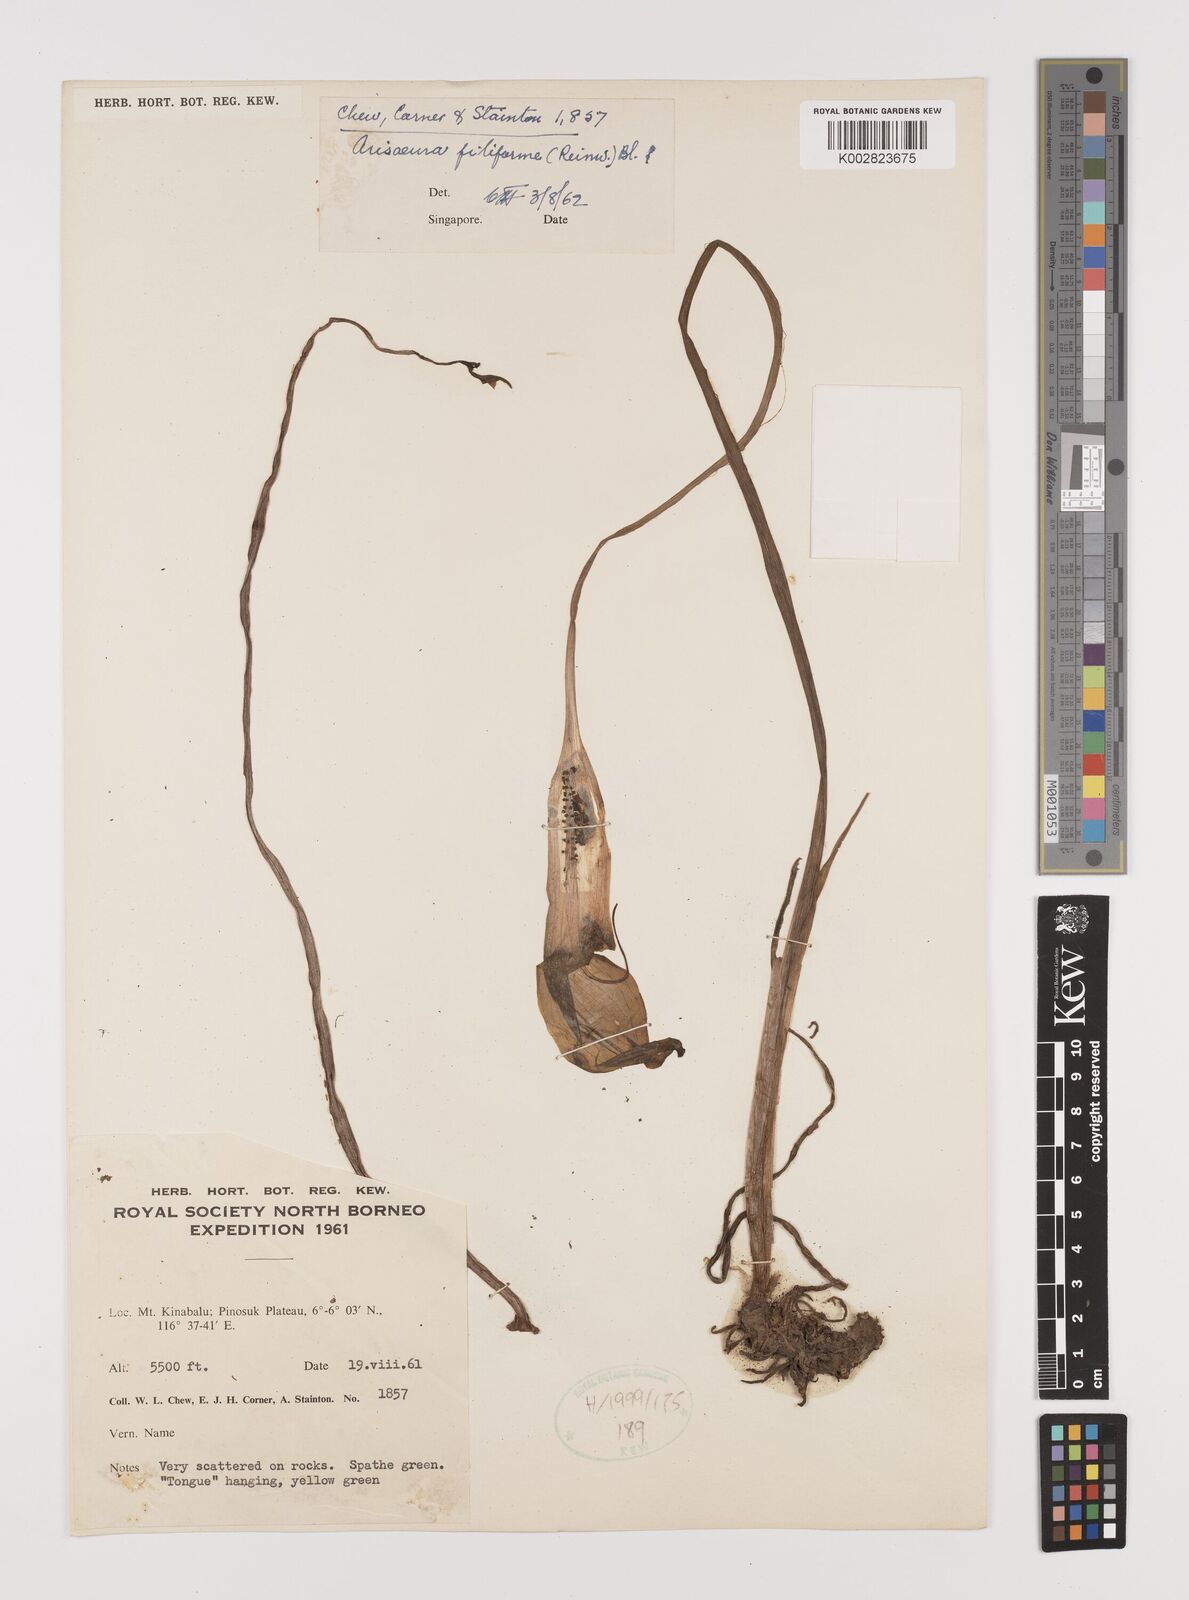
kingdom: Plantae
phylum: Tracheophyta
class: Liliopsida
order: Alismatales
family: Araceae
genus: Arisaema
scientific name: Arisaema filiforme
